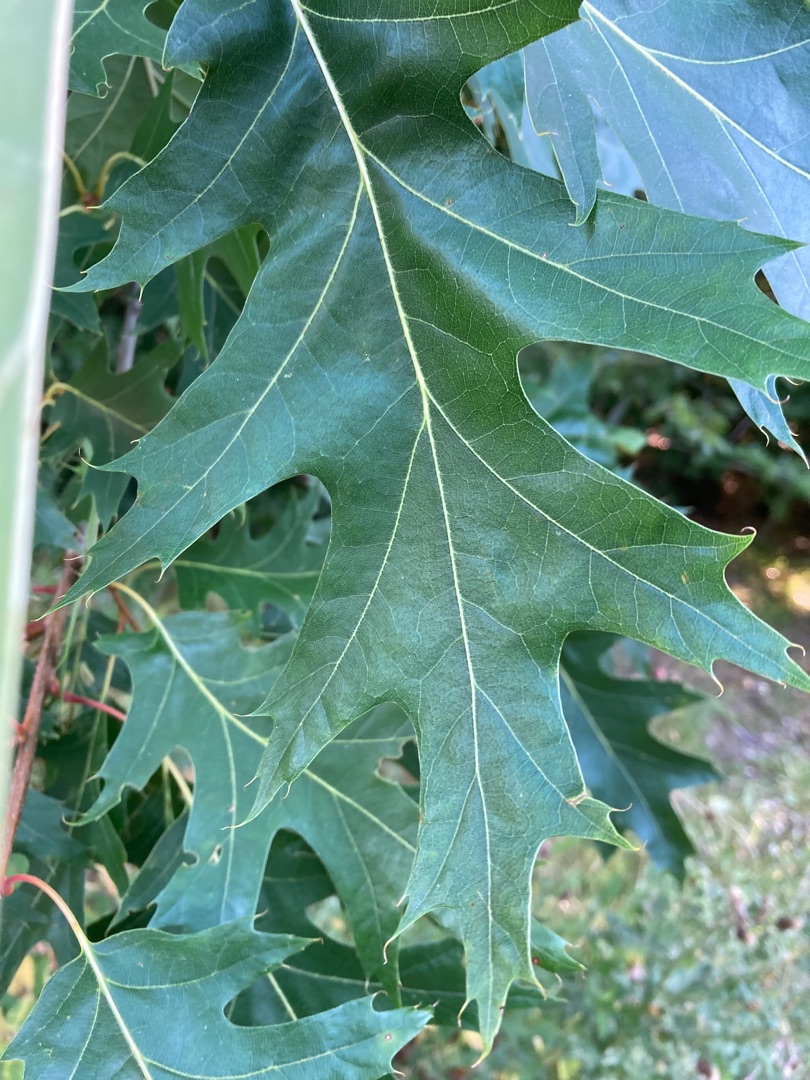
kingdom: Plantae
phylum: Tracheophyta
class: Magnoliopsida
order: Fagales
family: Fagaceae
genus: Quercus
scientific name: Quercus rubra
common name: Rød-eg
